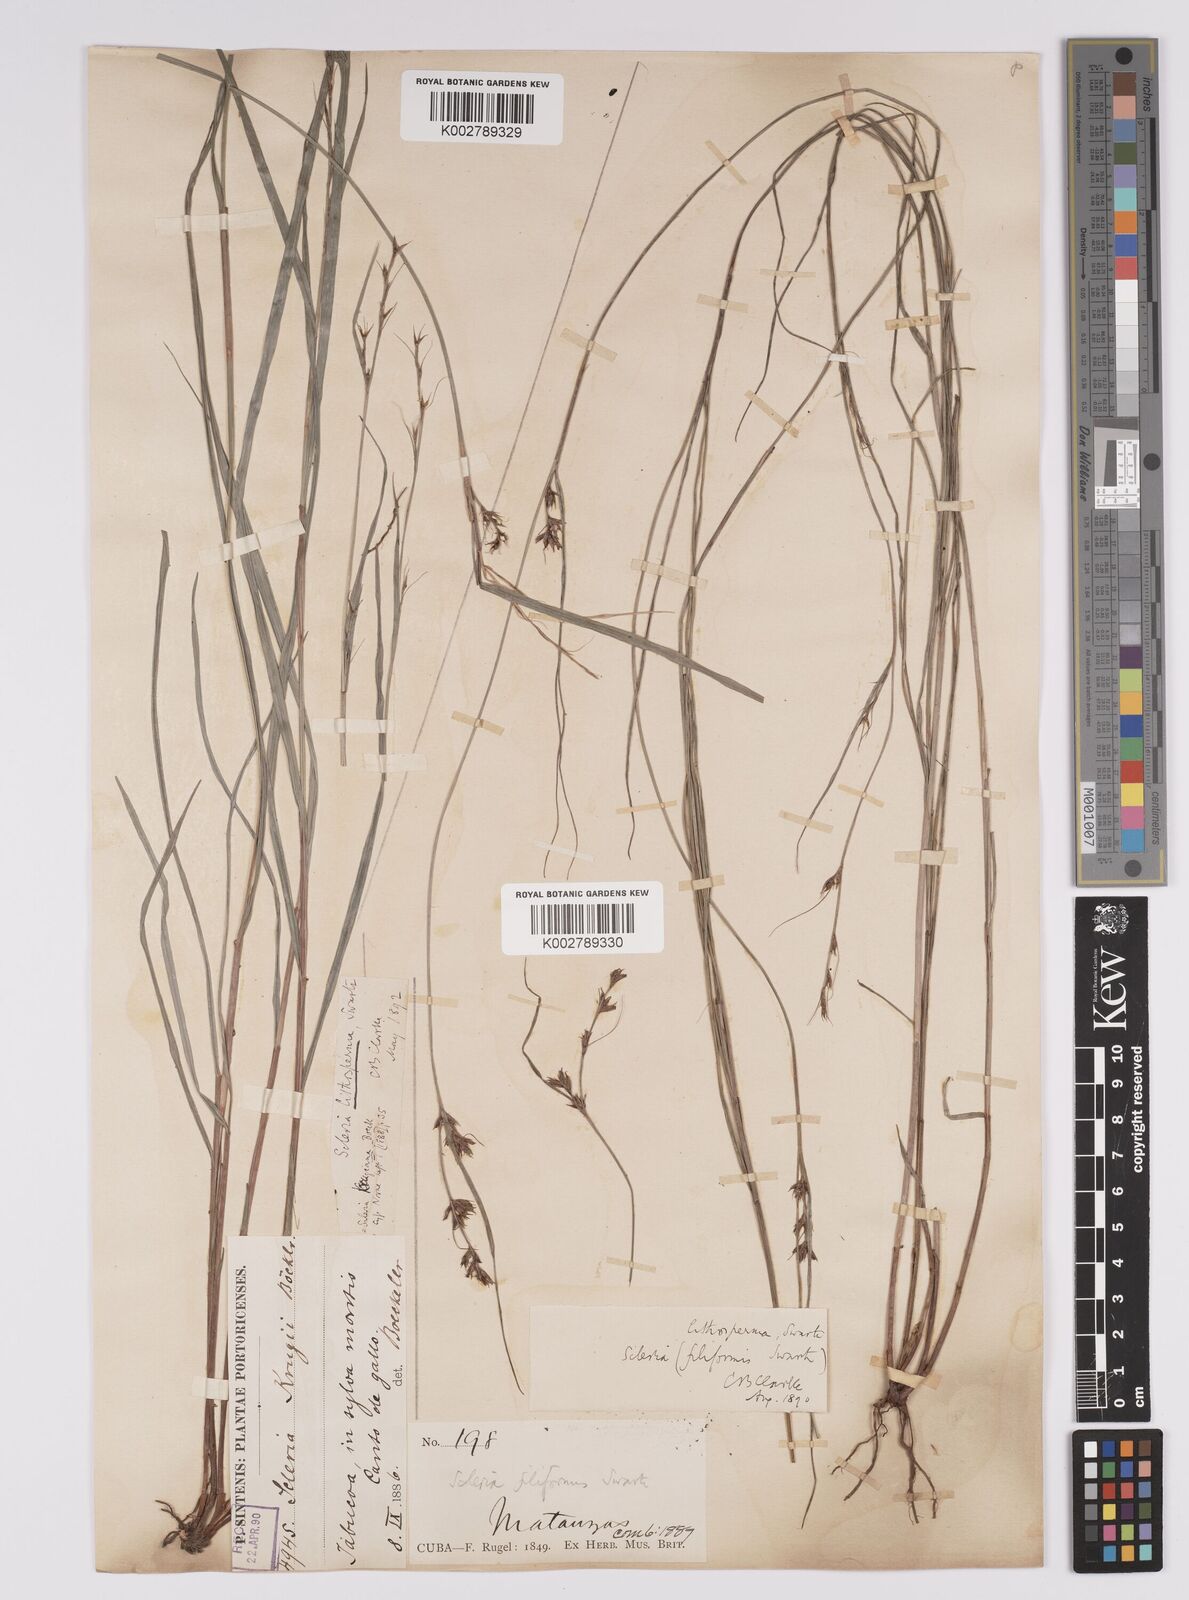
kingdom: Plantae
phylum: Tracheophyta
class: Liliopsida
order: Poales
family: Cyperaceae
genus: Scleria
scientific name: Scleria lithosperma
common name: Florida keys nut-rush
